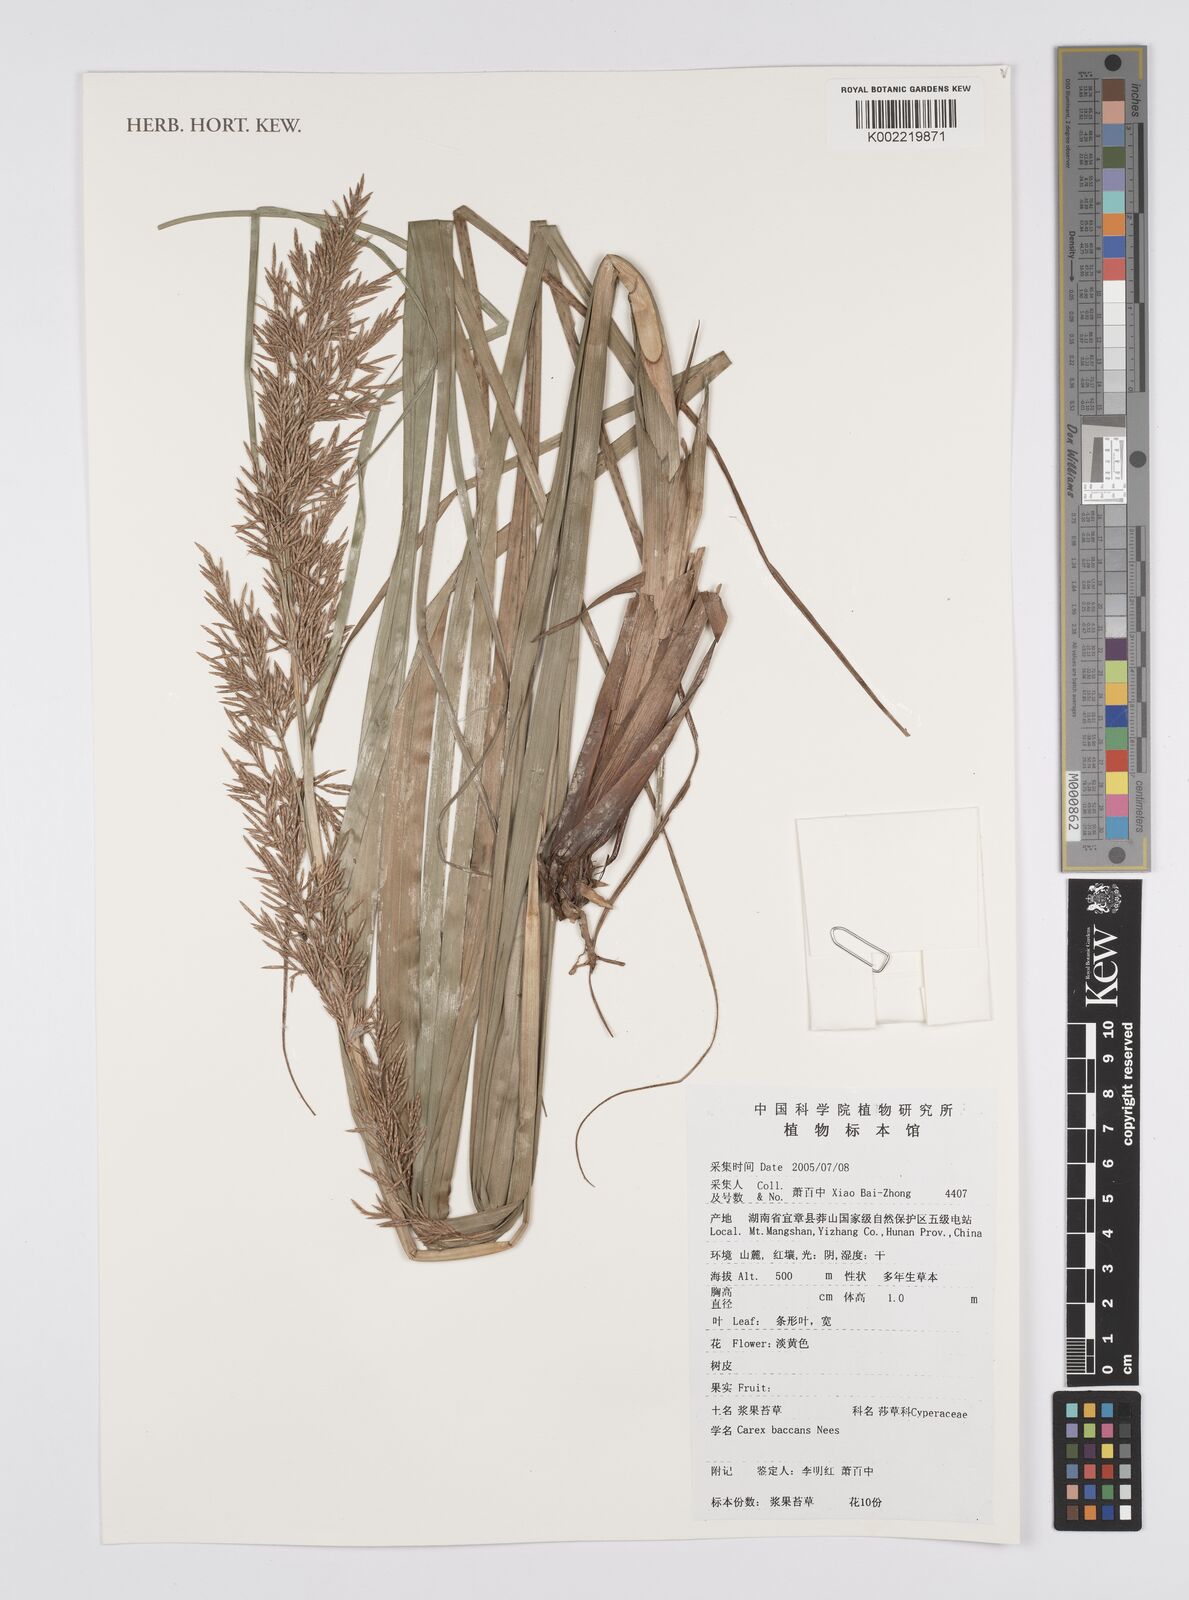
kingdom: Plantae
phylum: Tracheophyta
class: Liliopsida
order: Poales
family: Cyperaceae
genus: Carex
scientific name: Carex baccans
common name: Crimson seeded sedge
